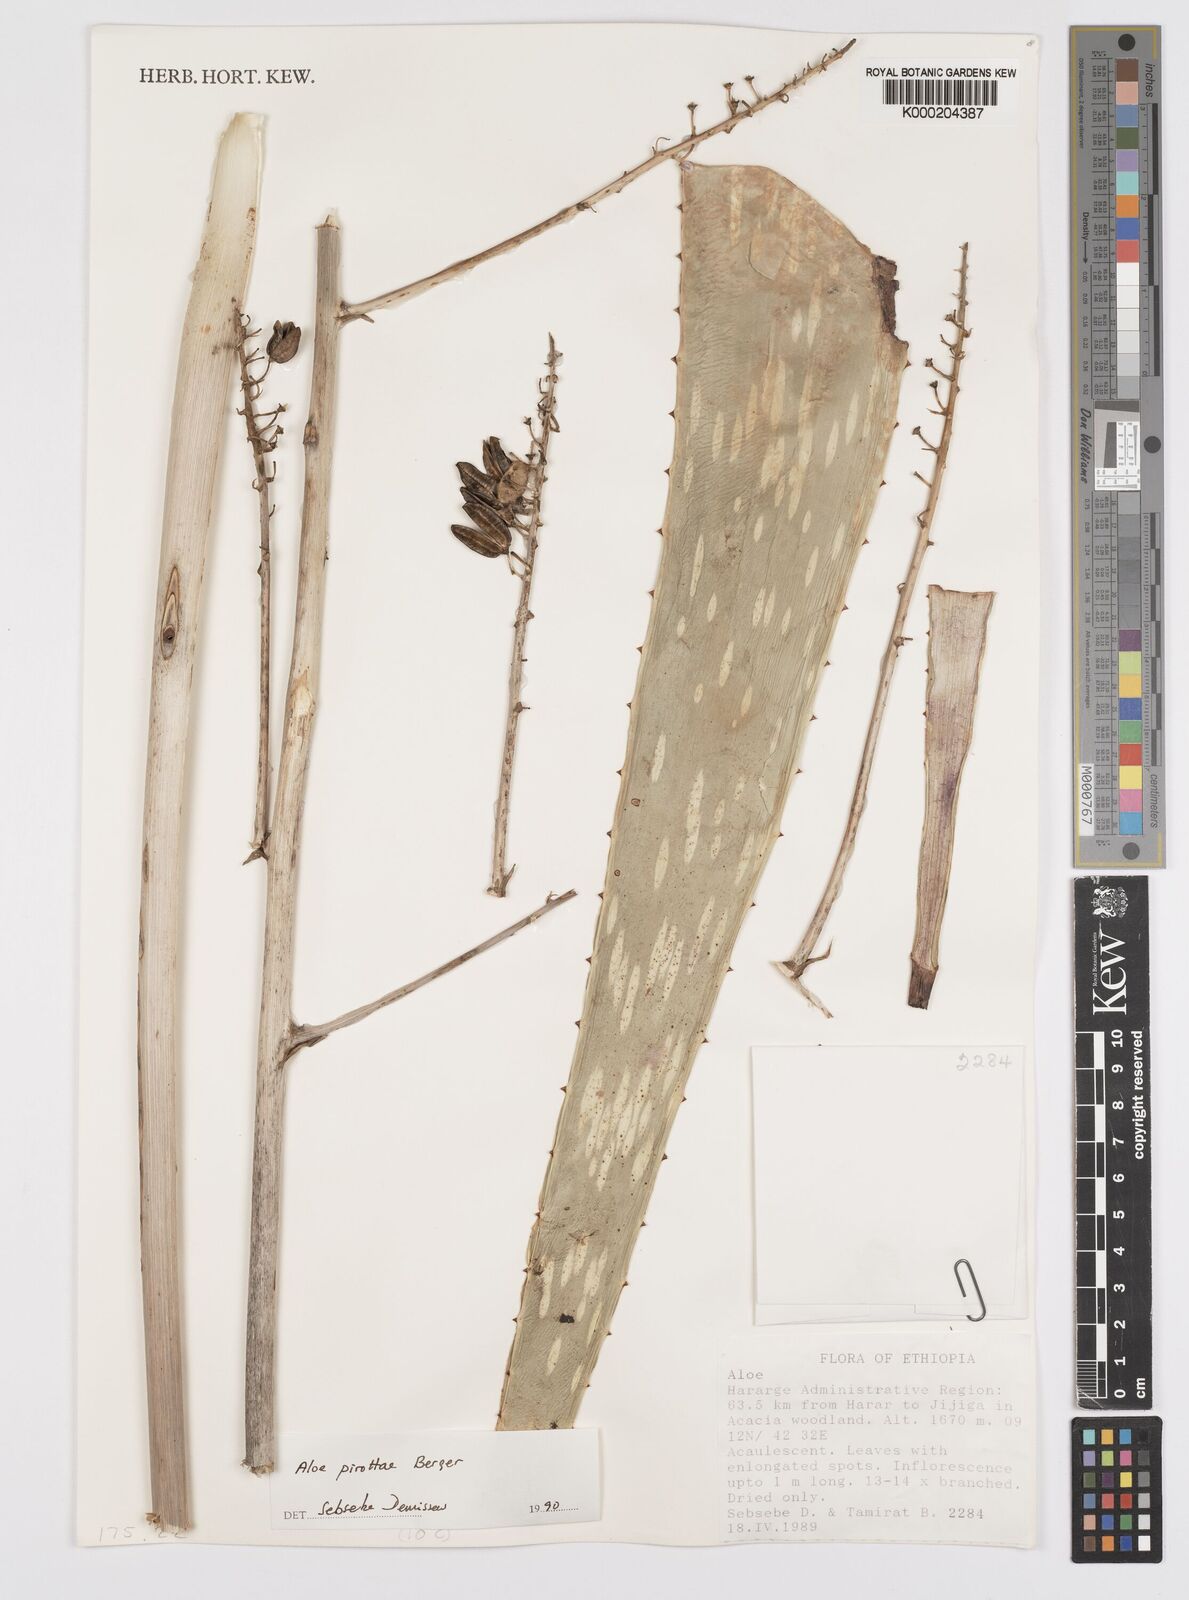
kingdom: Plantae
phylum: Tracheophyta
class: Liliopsida
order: Asparagales
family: Asphodelaceae
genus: Aloe
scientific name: Aloe pirottae
